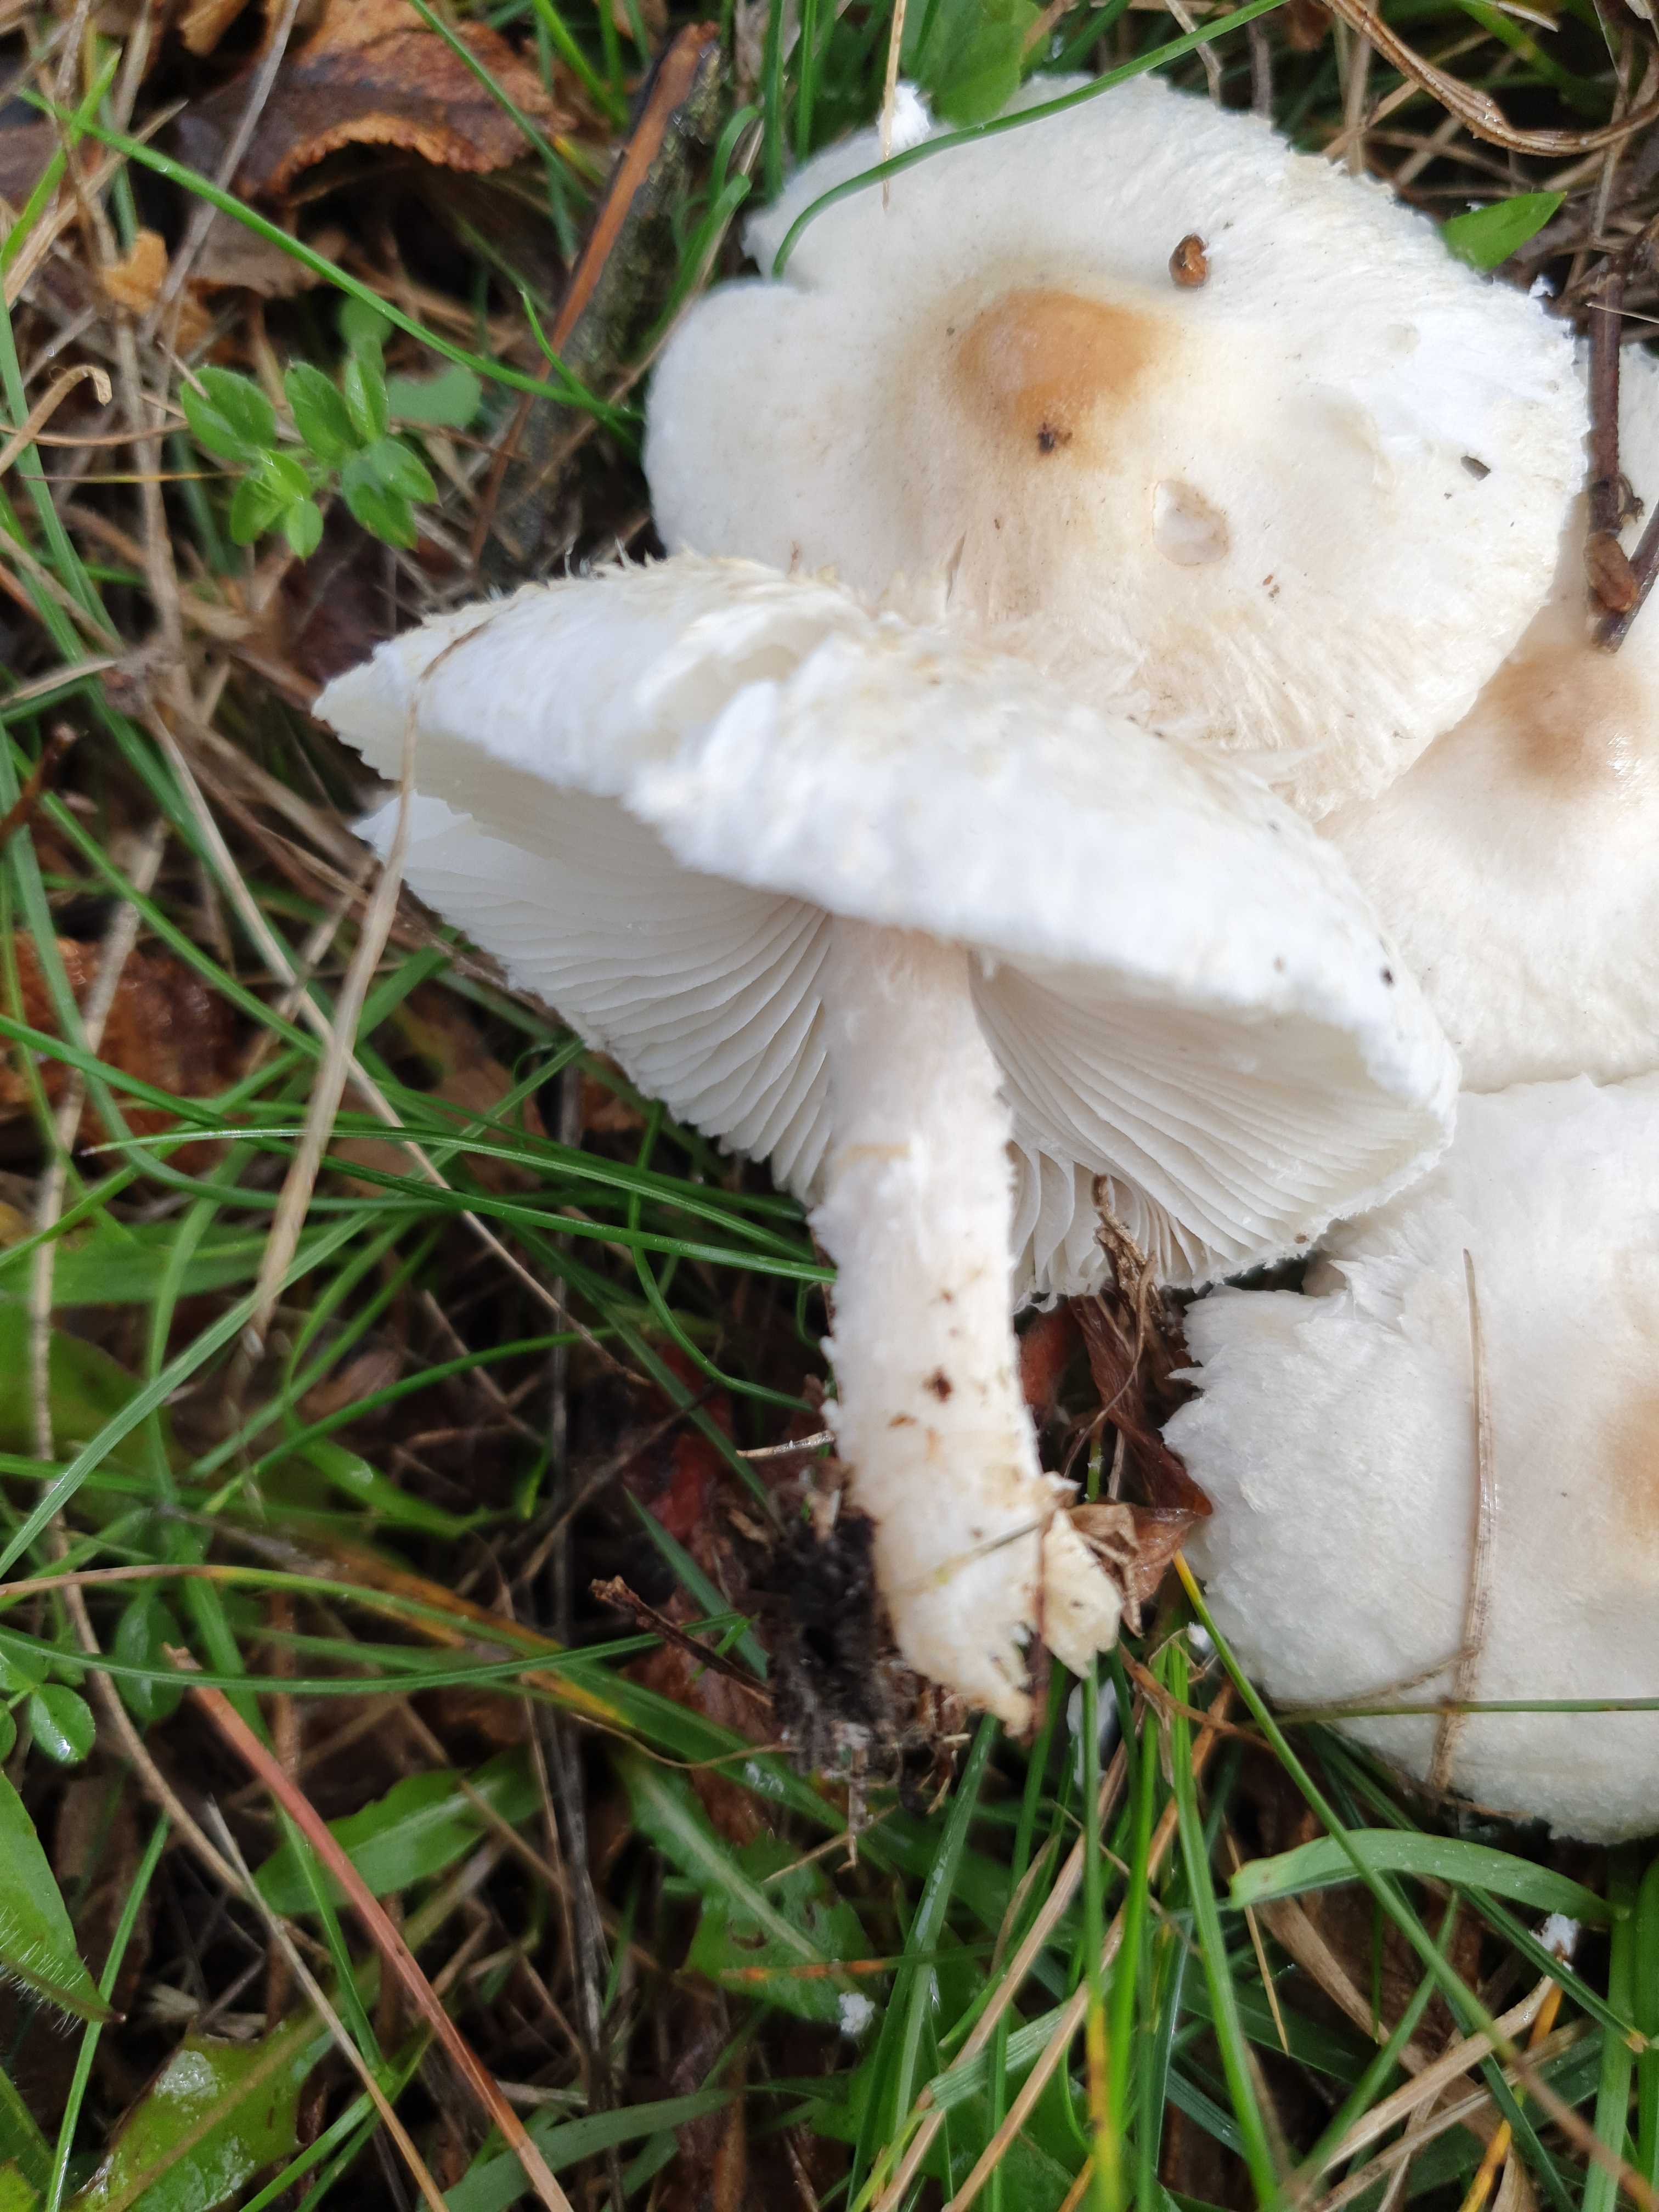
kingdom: Fungi
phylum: Basidiomycota
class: Agaricomycetes
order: Agaricales
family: Agaricaceae
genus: Lepiota
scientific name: Lepiota erminea
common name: hvid parasolhat
